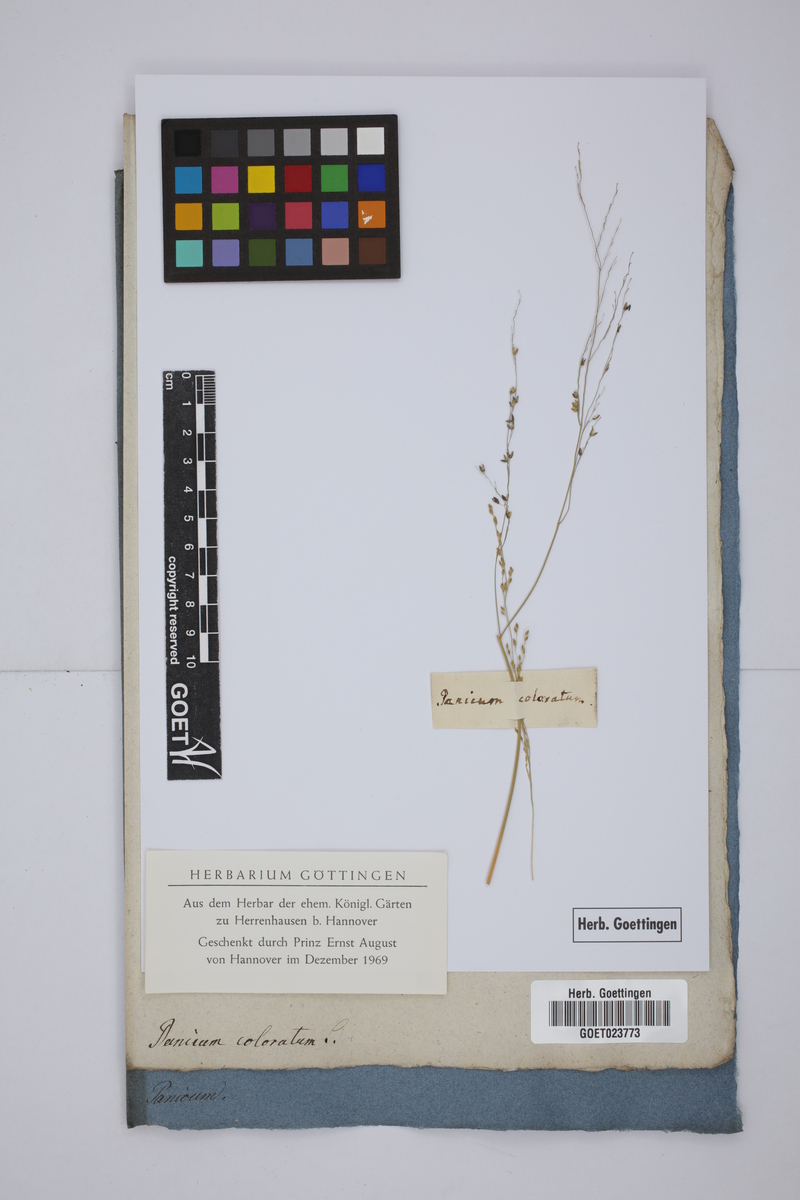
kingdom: Plantae
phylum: Tracheophyta
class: Liliopsida
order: Poales
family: Poaceae
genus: Panicum
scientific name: Panicum coloratum
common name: Kleingrass
